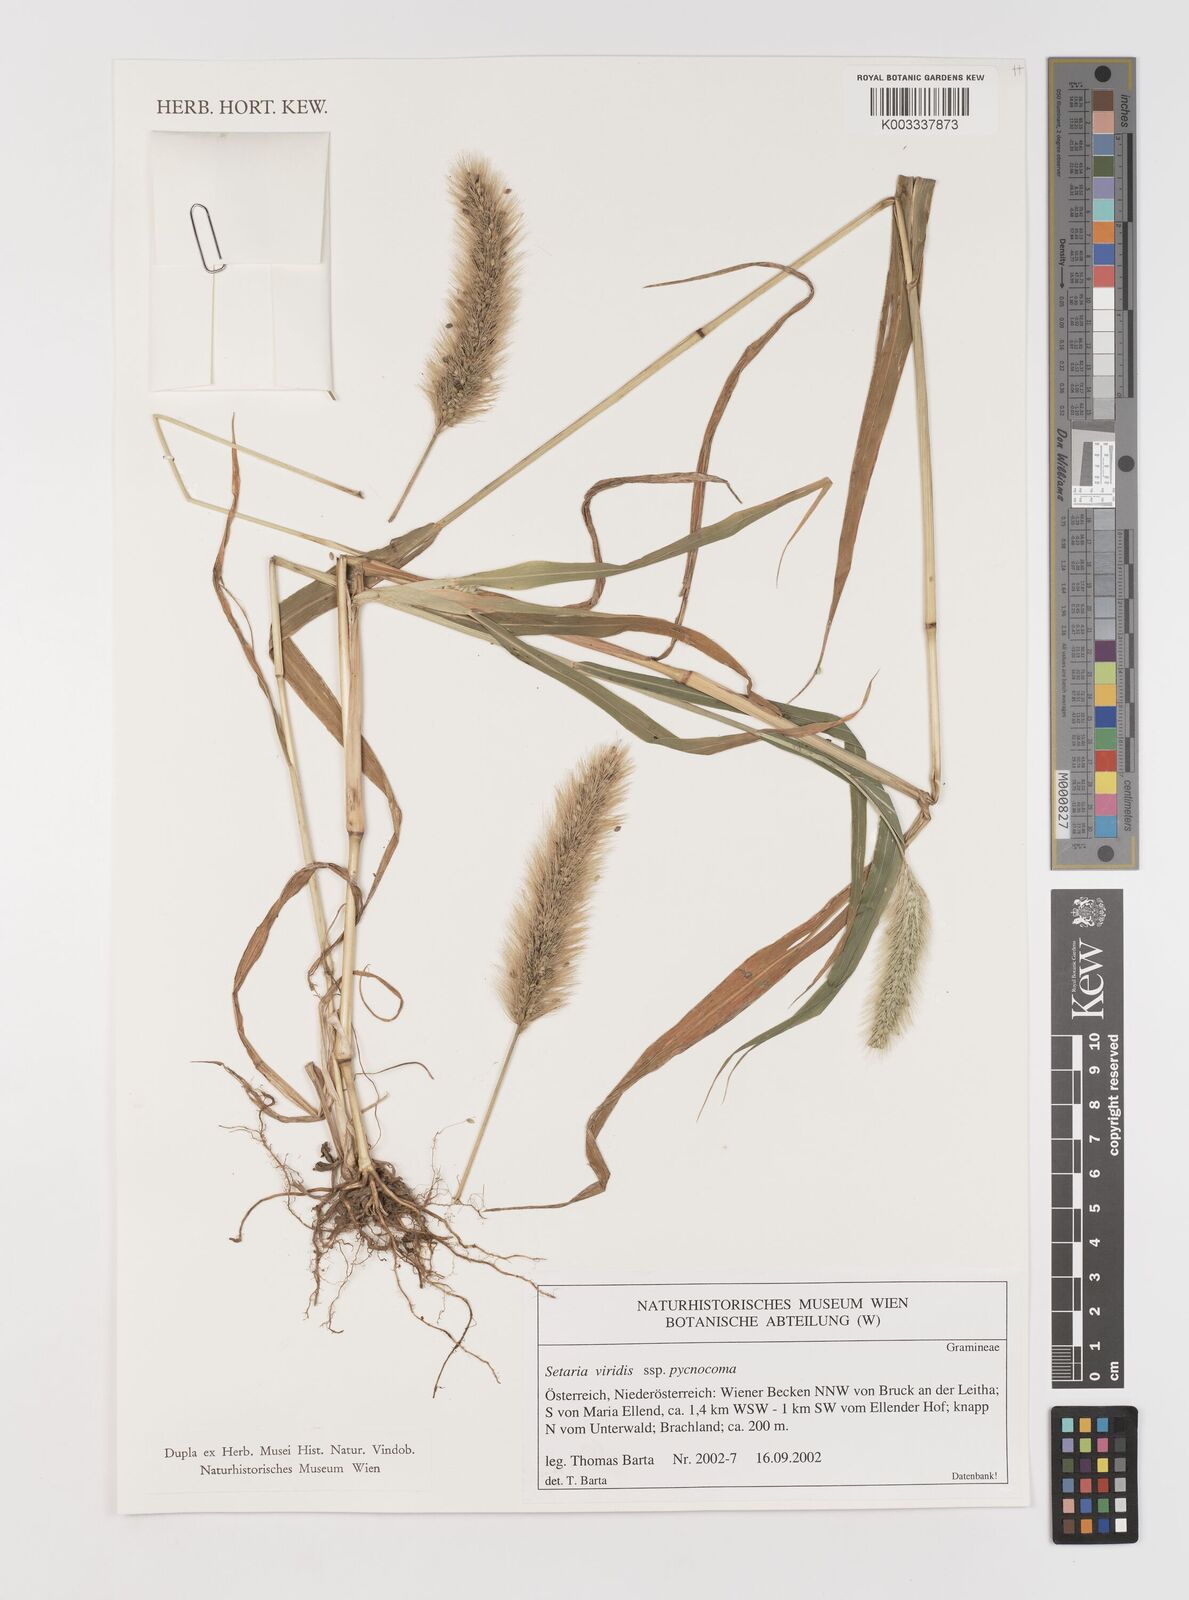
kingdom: Plantae
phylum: Tracheophyta
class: Liliopsida
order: Poales
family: Poaceae
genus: Setaria
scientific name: Setaria viridis
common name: Green bristlegrass
